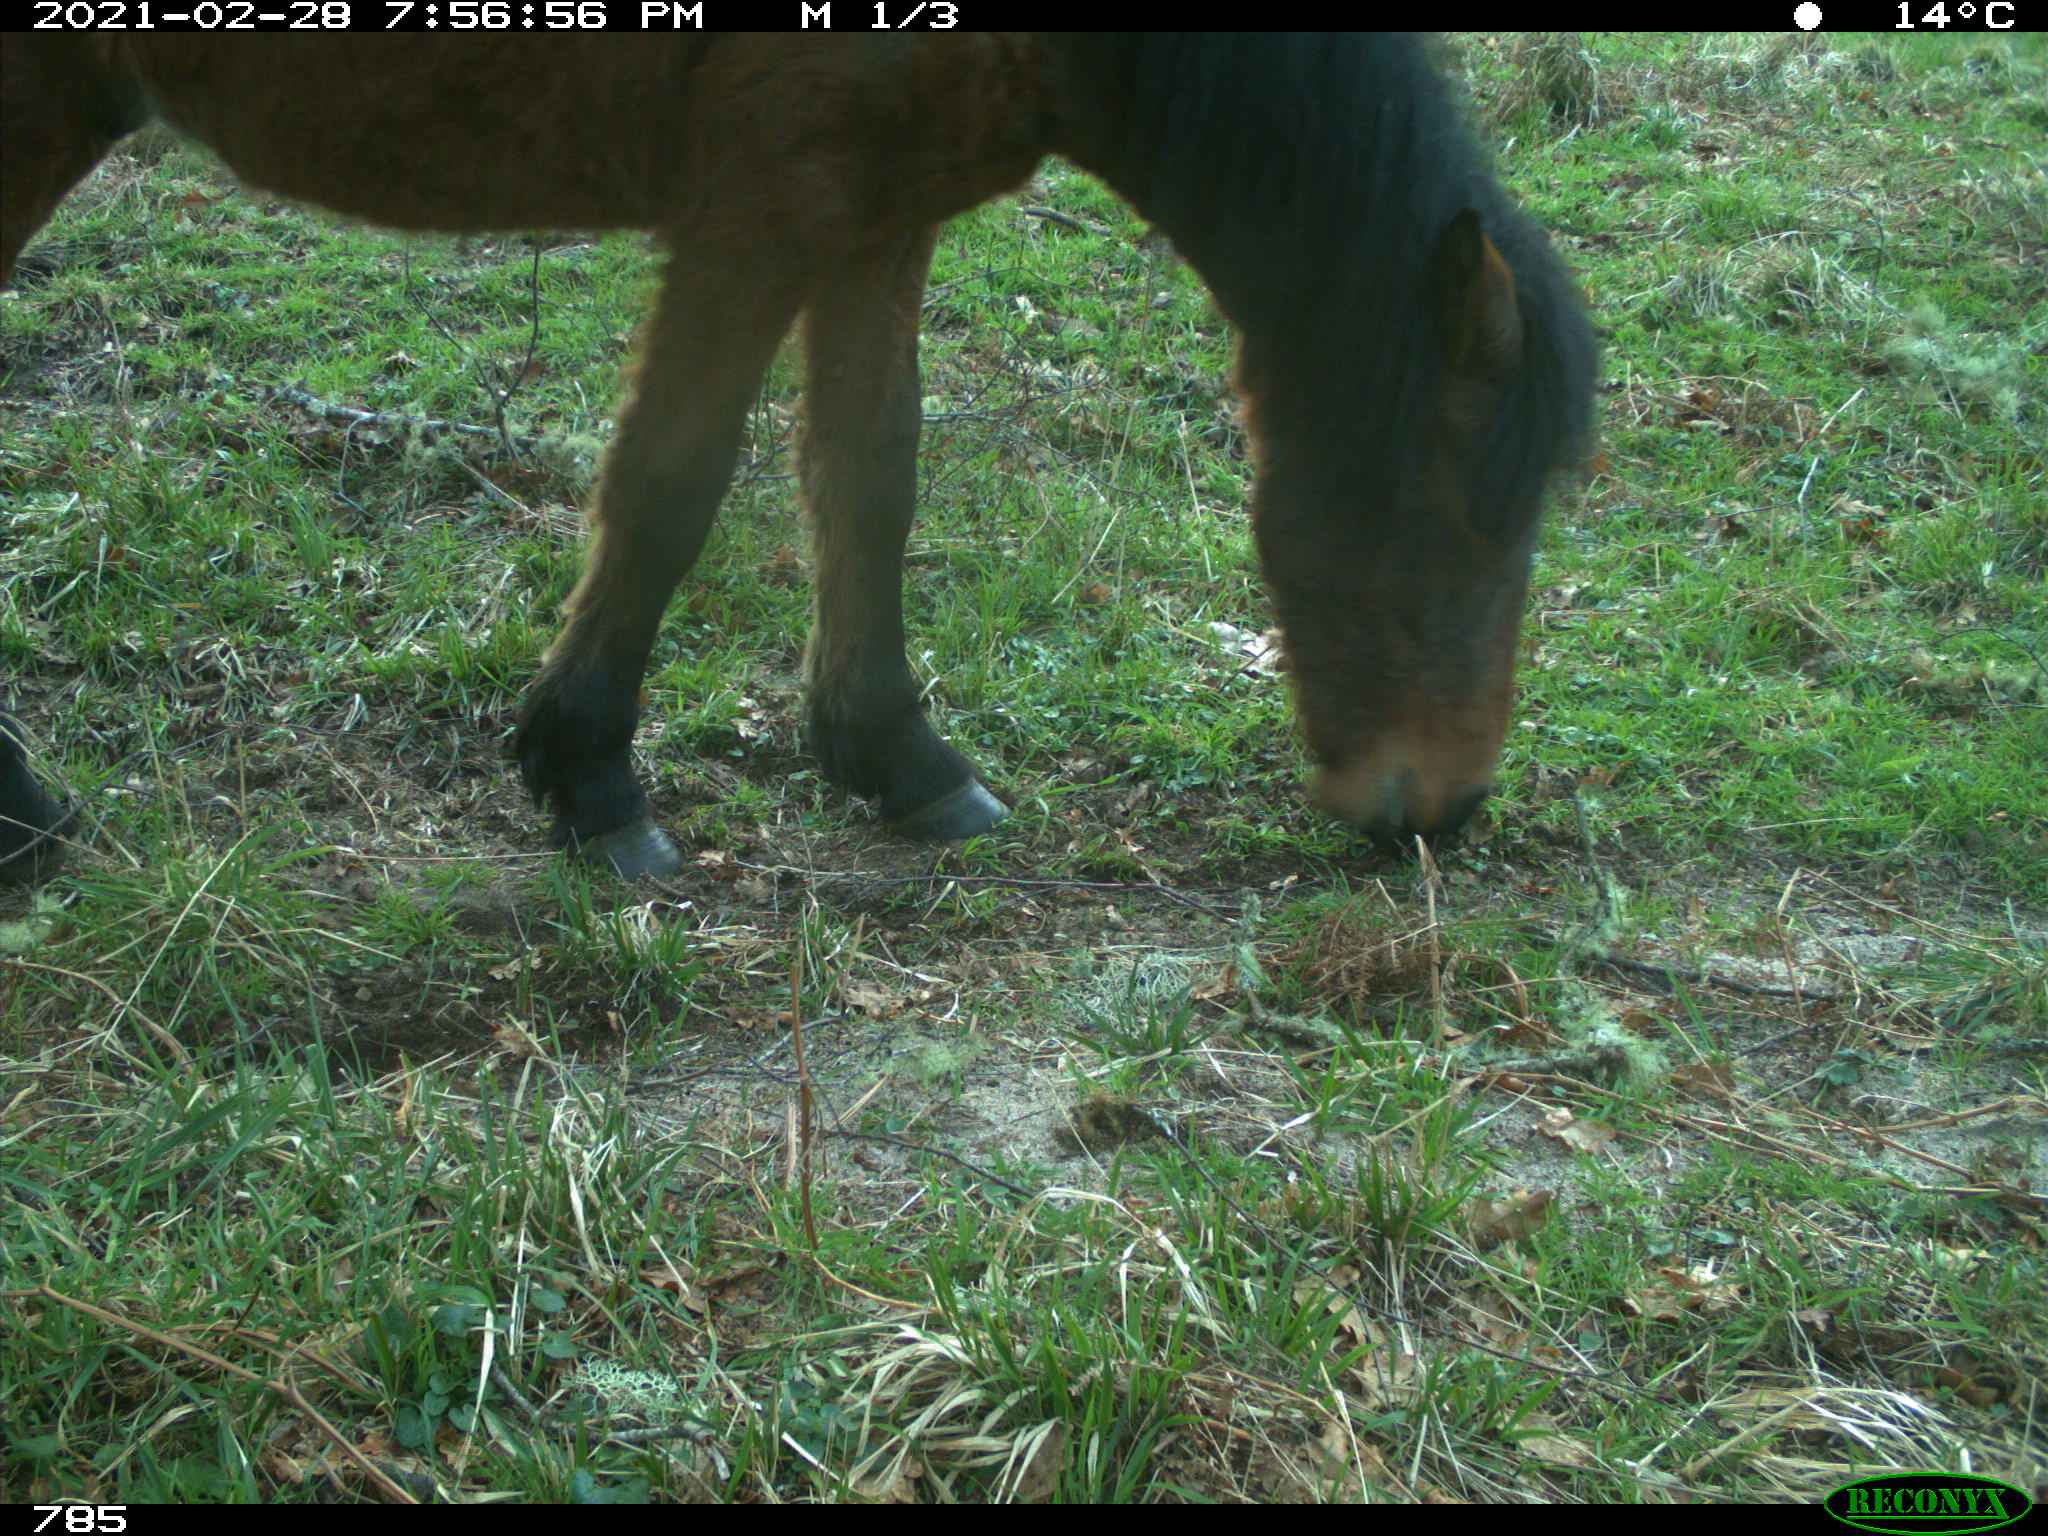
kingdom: Animalia
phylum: Chordata
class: Mammalia
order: Perissodactyla
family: Equidae
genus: Equus
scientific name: Equus caballus
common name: Horse
